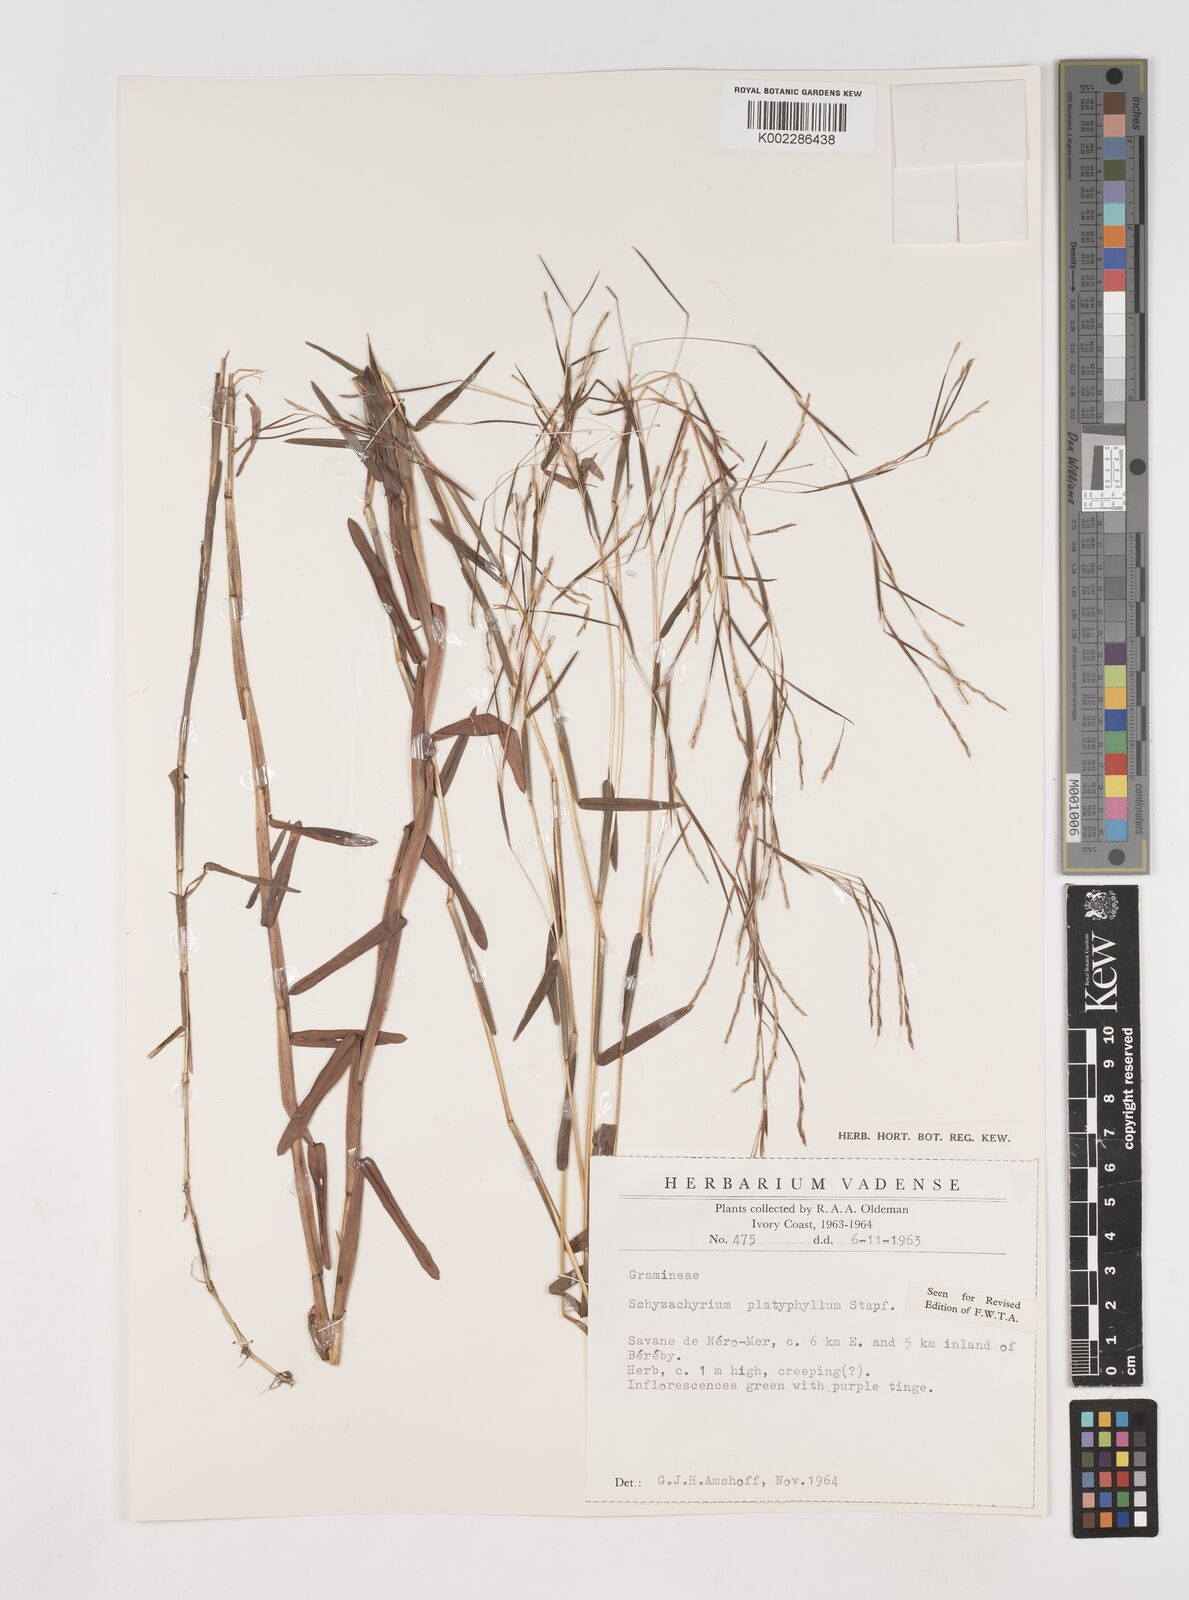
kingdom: Plantae
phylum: Tracheophyta
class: Liliopsida
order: Poales
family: Poaceae
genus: Schizachyrium
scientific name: Schizachyrium platyphyllum
